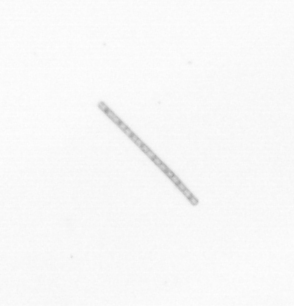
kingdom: Chromista
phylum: Ochrophyta
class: Bacillariophyceae
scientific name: Bacillariophyceae
